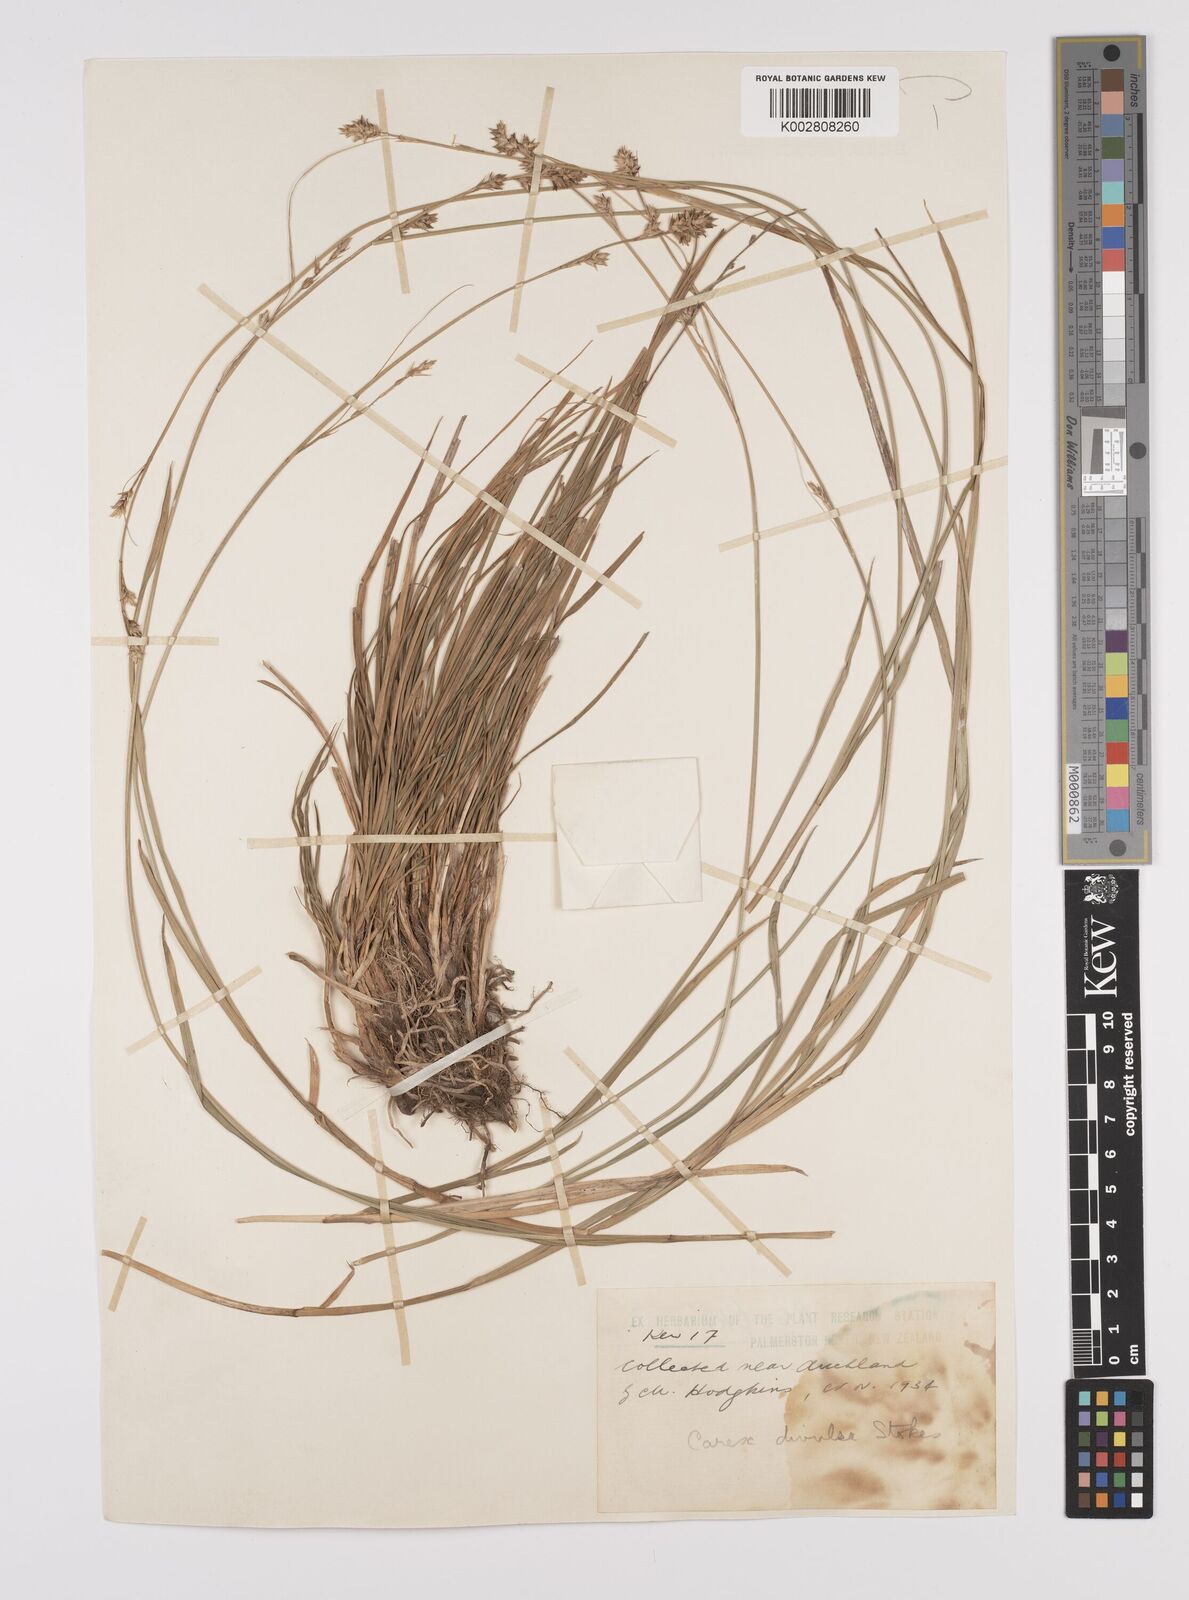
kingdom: Plantae
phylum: Tracheophyta
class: Liliopsida
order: Poales
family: Cyperaceae
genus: Carex
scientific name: Carex divulsa
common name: Grassland sedge
